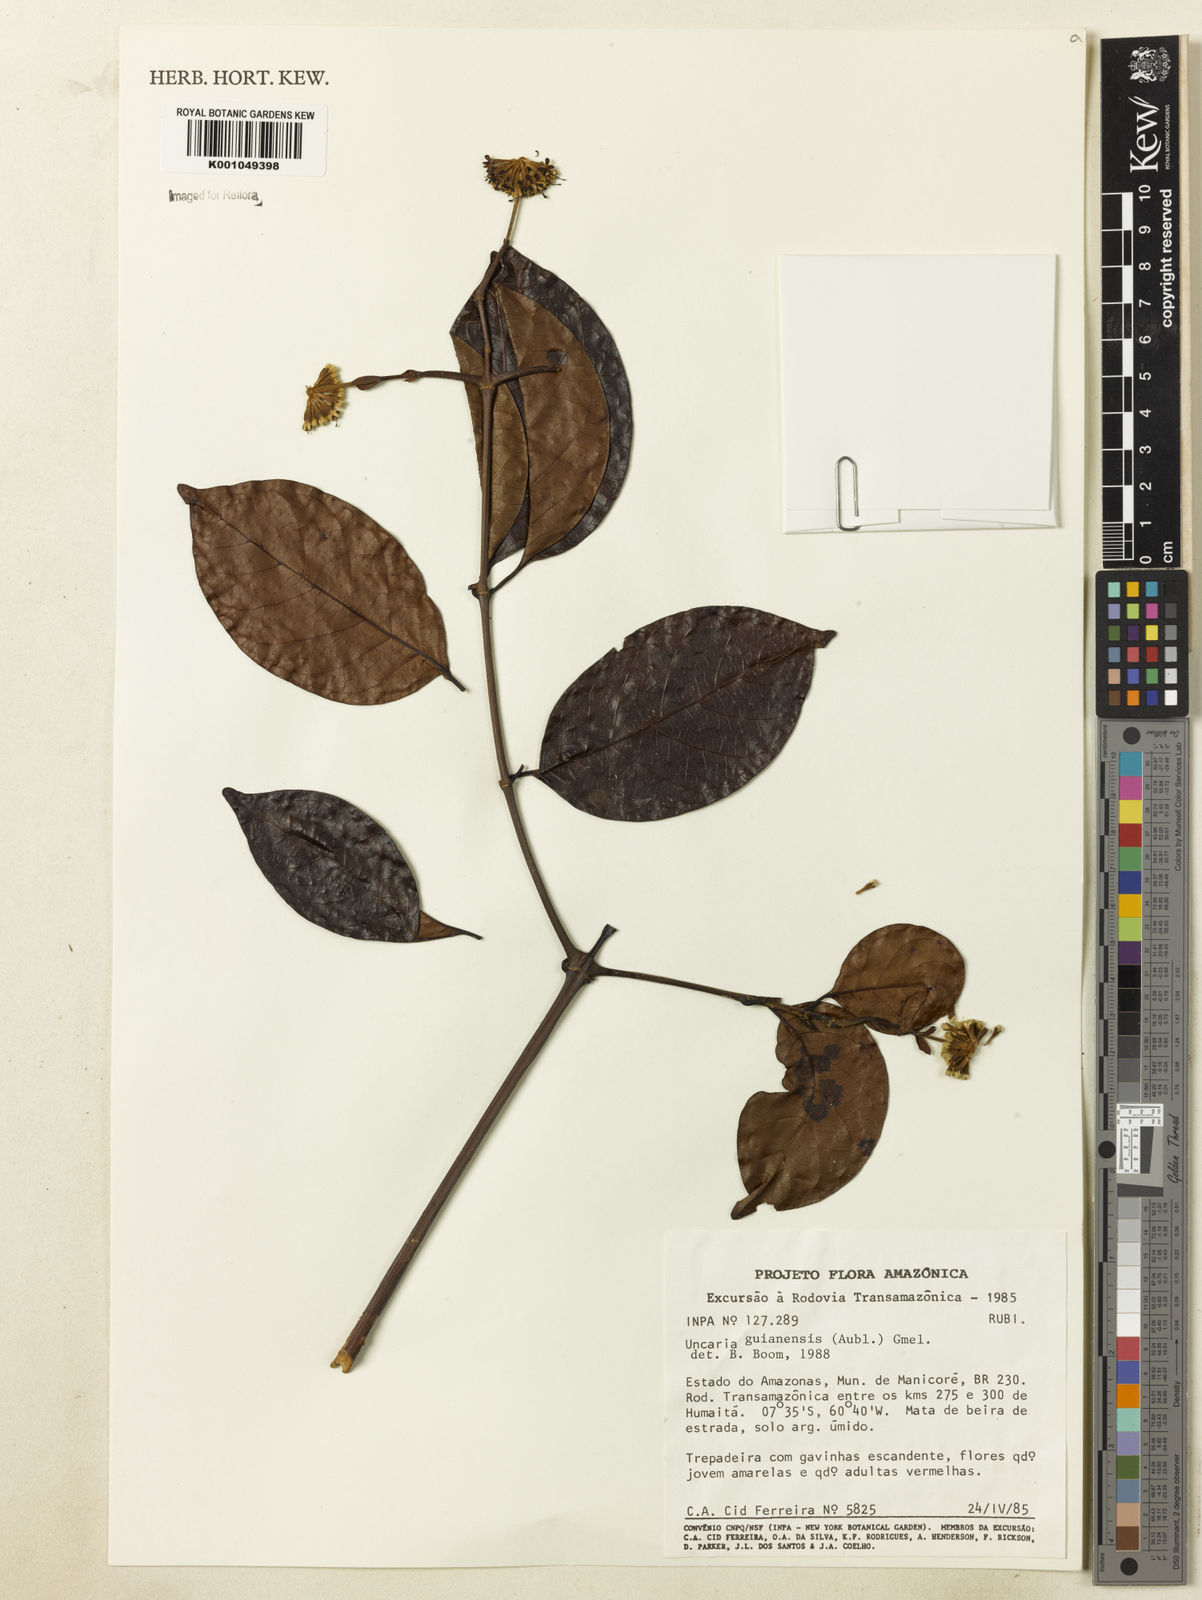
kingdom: Plantae
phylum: Tracheophyta
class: Magnoliopsida
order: Gentianales
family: Rubiaceae
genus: Uncaria
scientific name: Uncaria guianensis
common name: Cat's-claw
